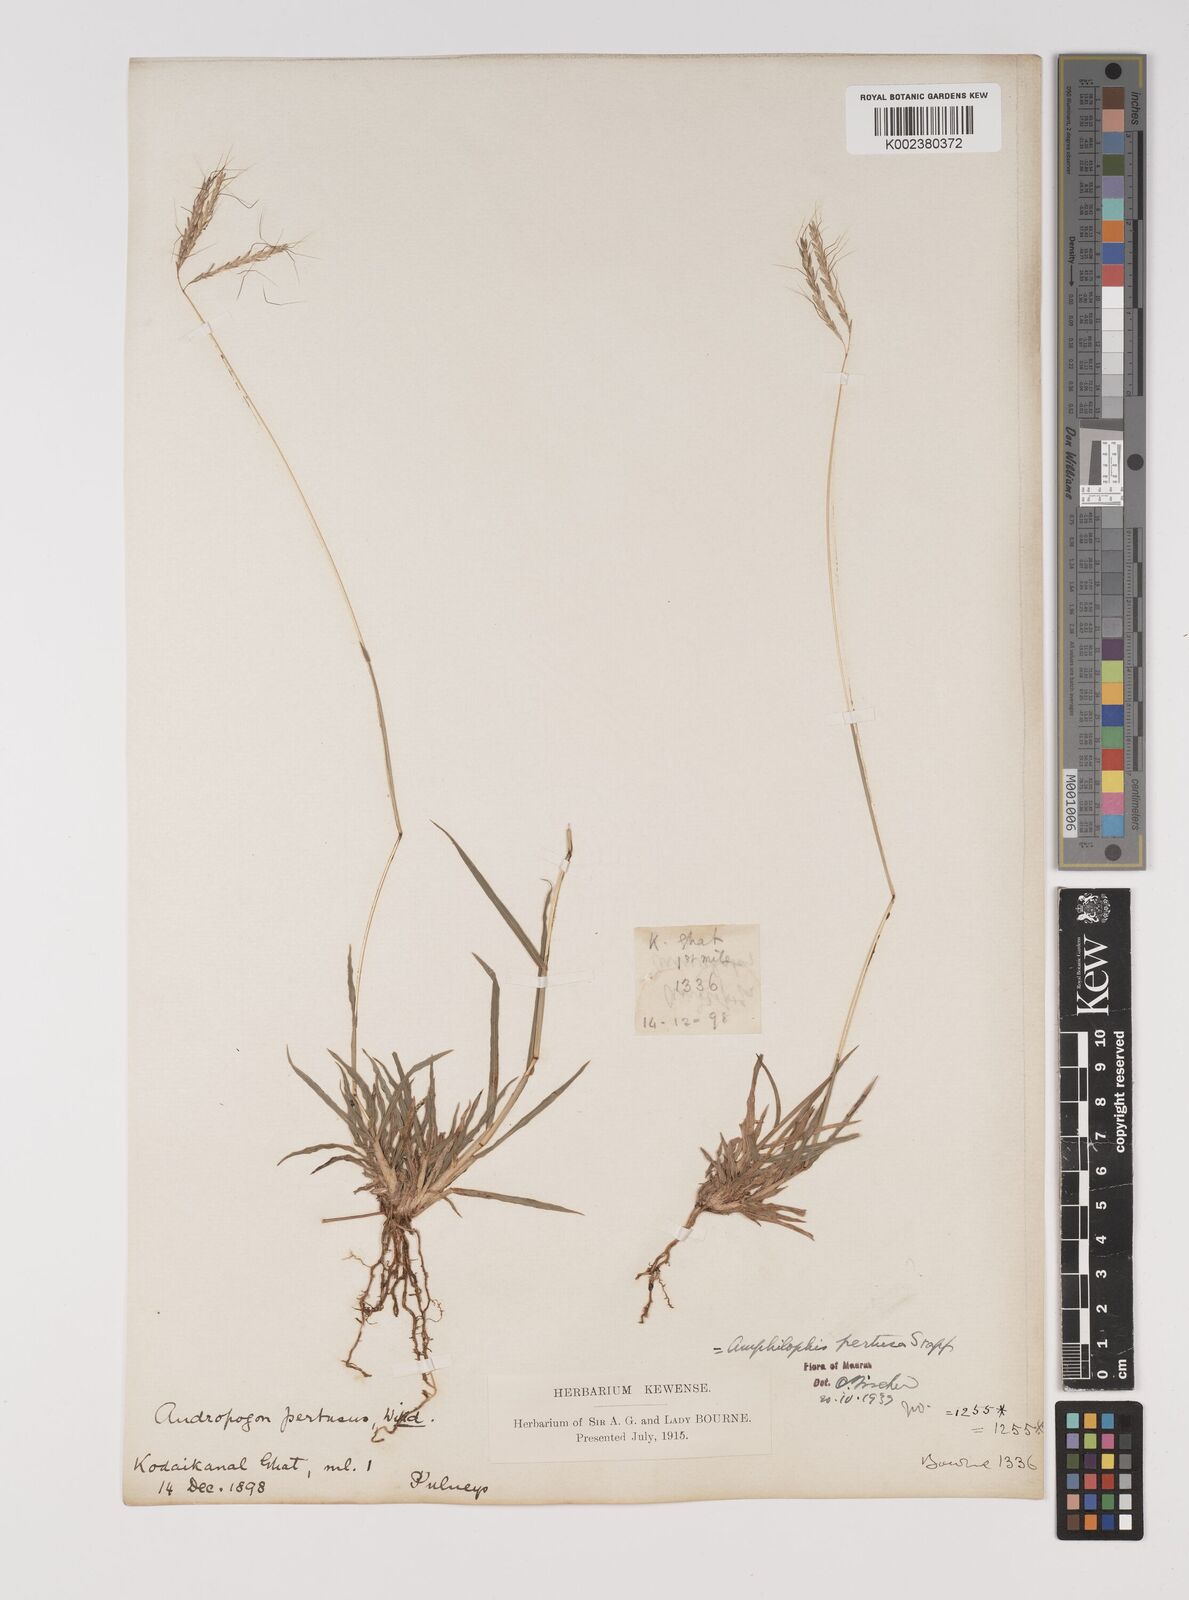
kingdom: Plantae
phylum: Tracheophyta
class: Liliopsida
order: Poales
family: Poaceae
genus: Bothriochloa
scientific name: Bothriochloa pertusa
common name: Pitted beardgrass
